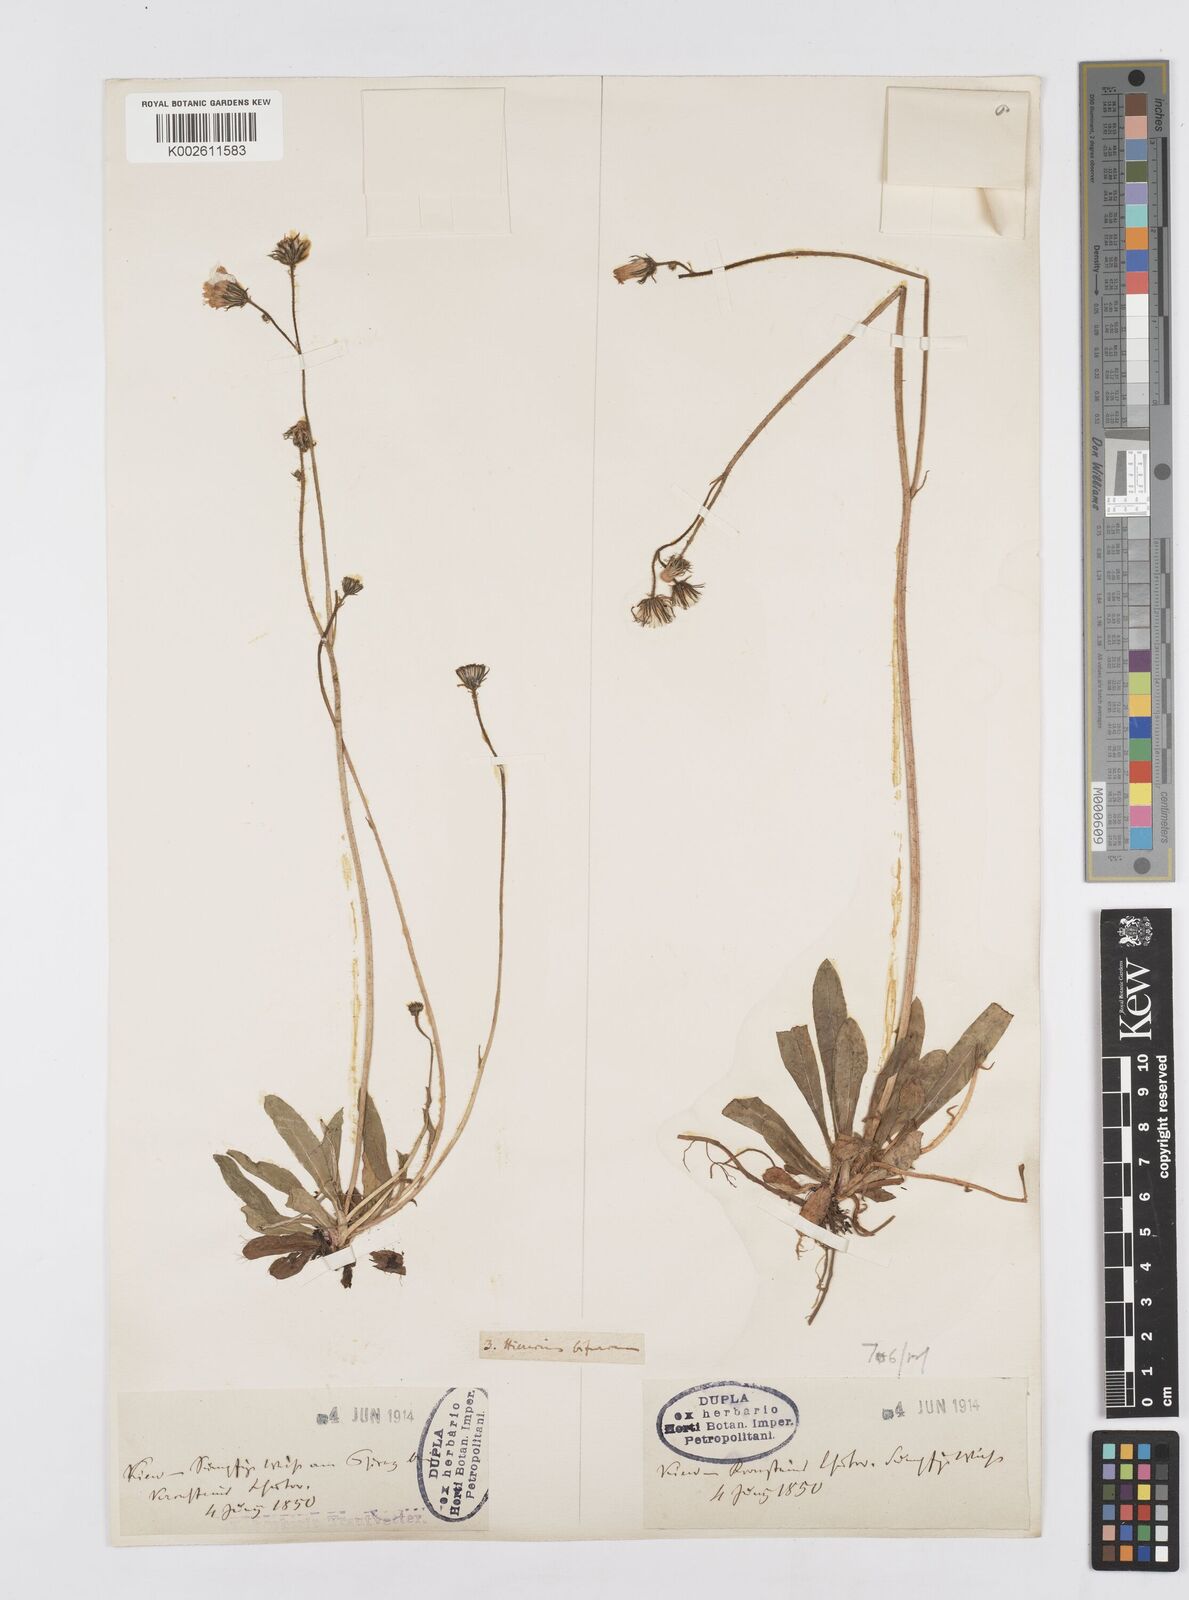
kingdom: Plantae
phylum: Tracheophyta
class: Magnoliopsida
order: Asterales
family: Asteraceae
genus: Pilosella
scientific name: Pilosella acutifolia
